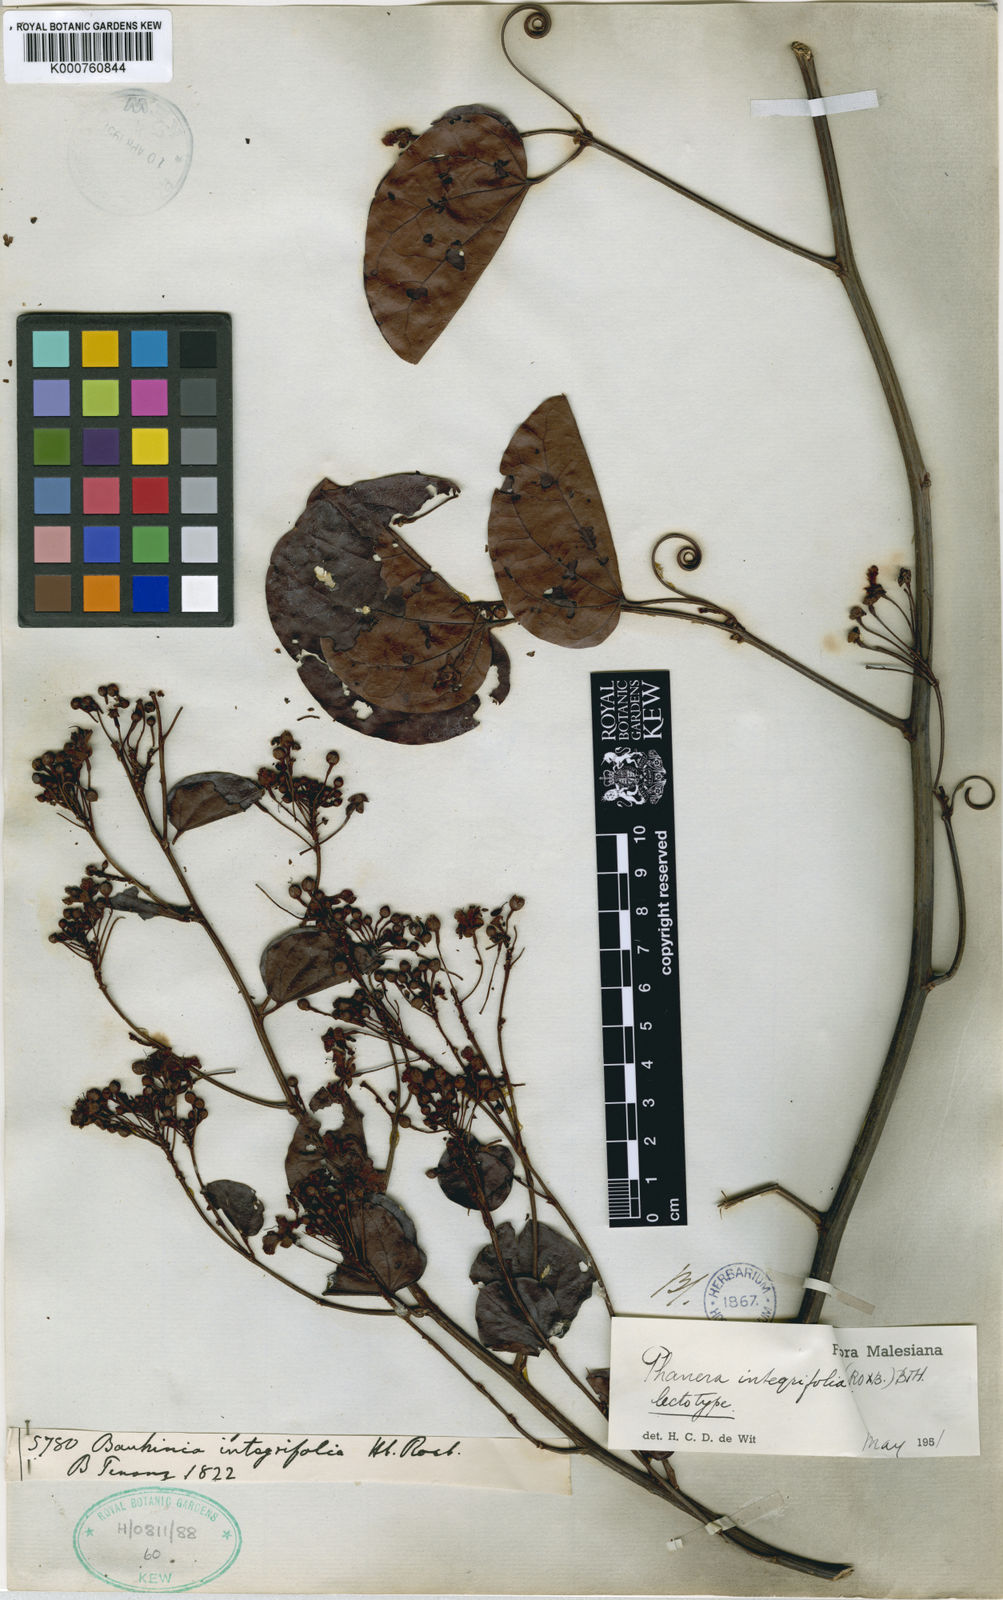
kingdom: Plantae
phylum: Tracheophyta
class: Magnoliopsida
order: Fabales
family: Fabaceae
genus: Phanera
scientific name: Phanera integrifolia
